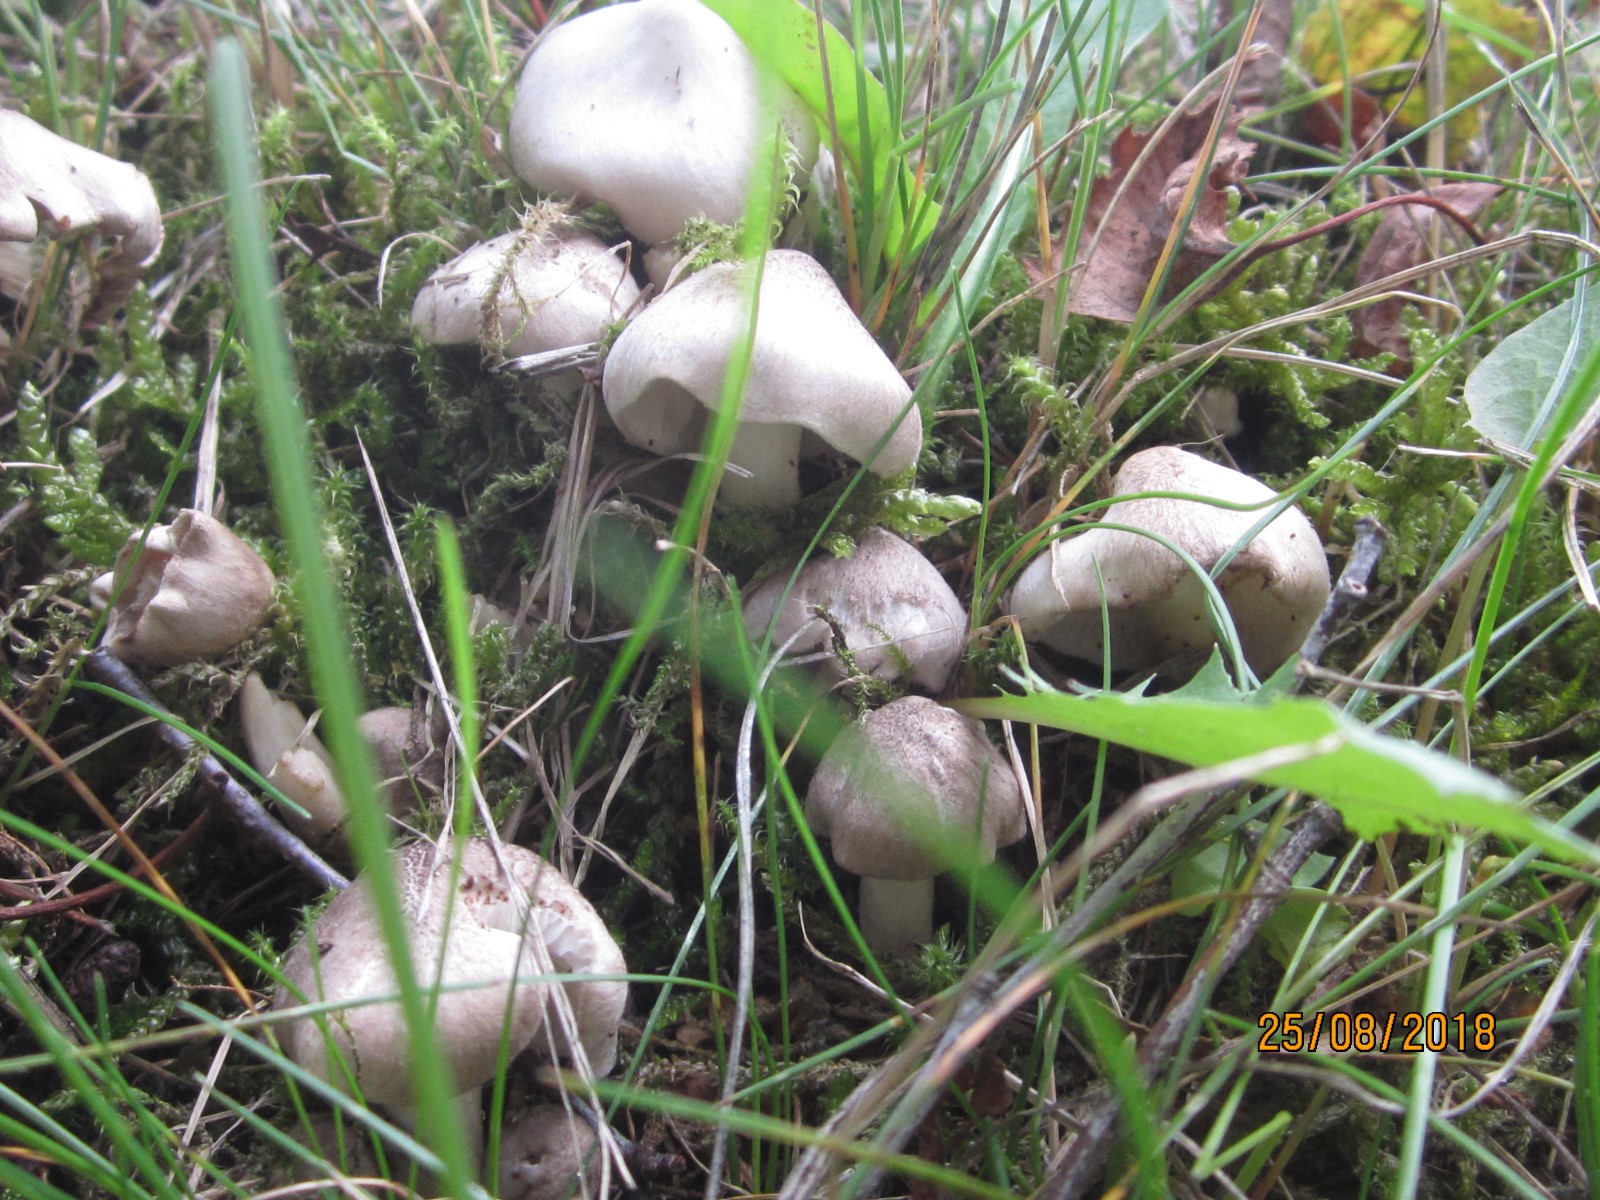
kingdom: Fungi
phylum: Basidiomycota
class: Agaricomycetes
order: Agaricales
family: Tricholomataceae
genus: Tricholoma
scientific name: Tricholoma argyraceum
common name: spids ridderhat
